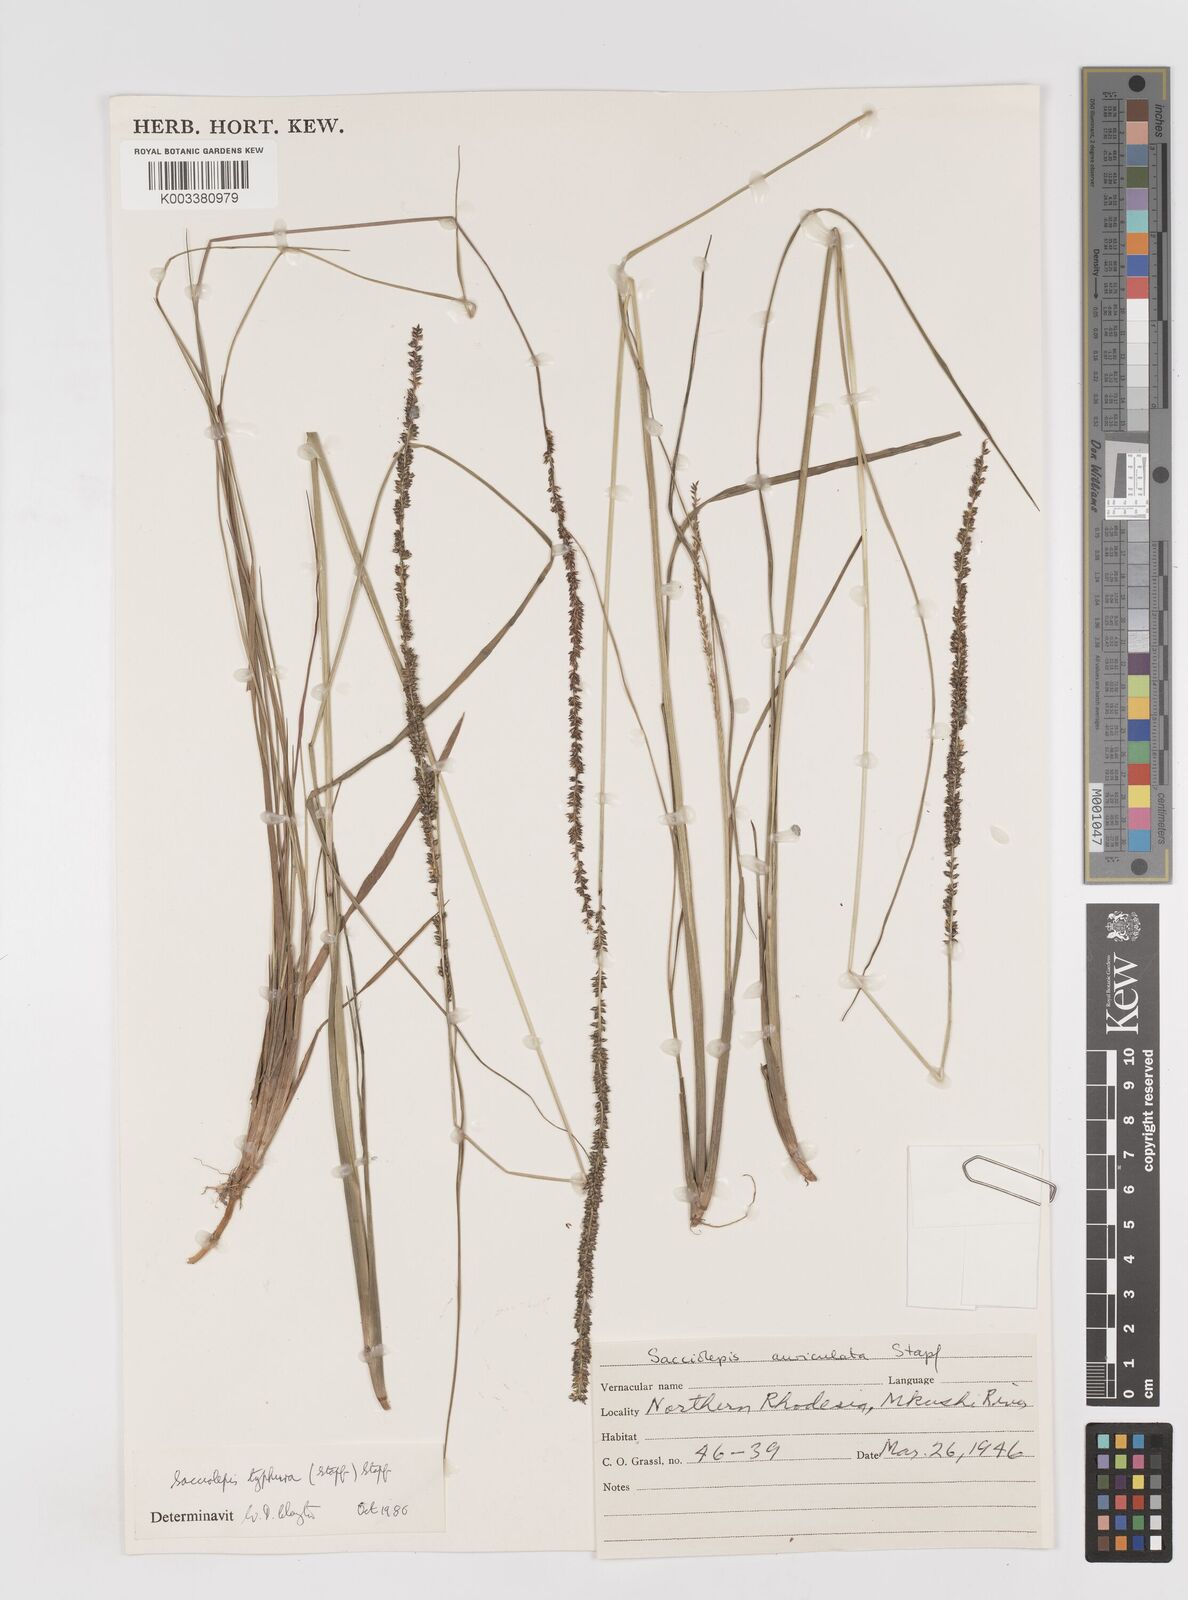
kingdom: Plantae
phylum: Tracheophyta
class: Liliopsida
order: Poales
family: Poaceae
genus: Sacciolepis
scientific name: Sacciolepis typhura
